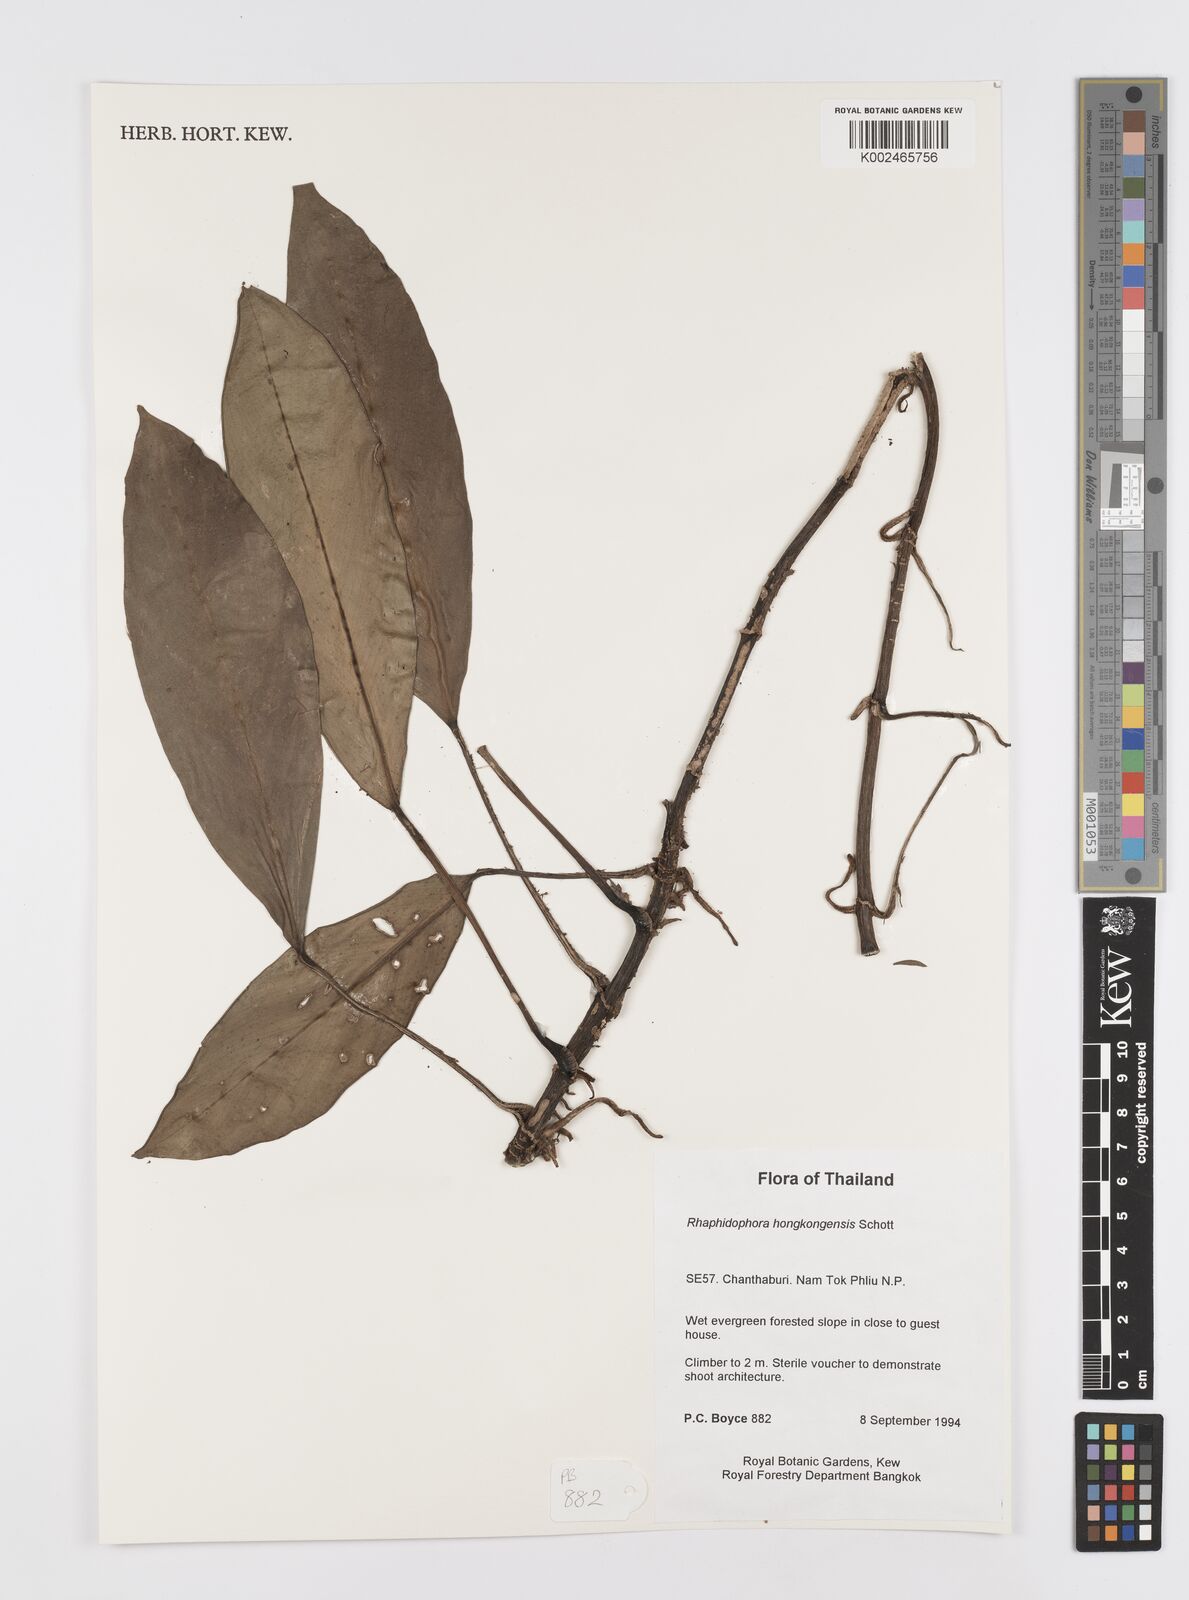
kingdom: Plantae
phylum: Tracheophyta
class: Liliopsida
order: Alismatales
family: Araceae
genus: Rhaphidophora
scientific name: Rhaphidophora
